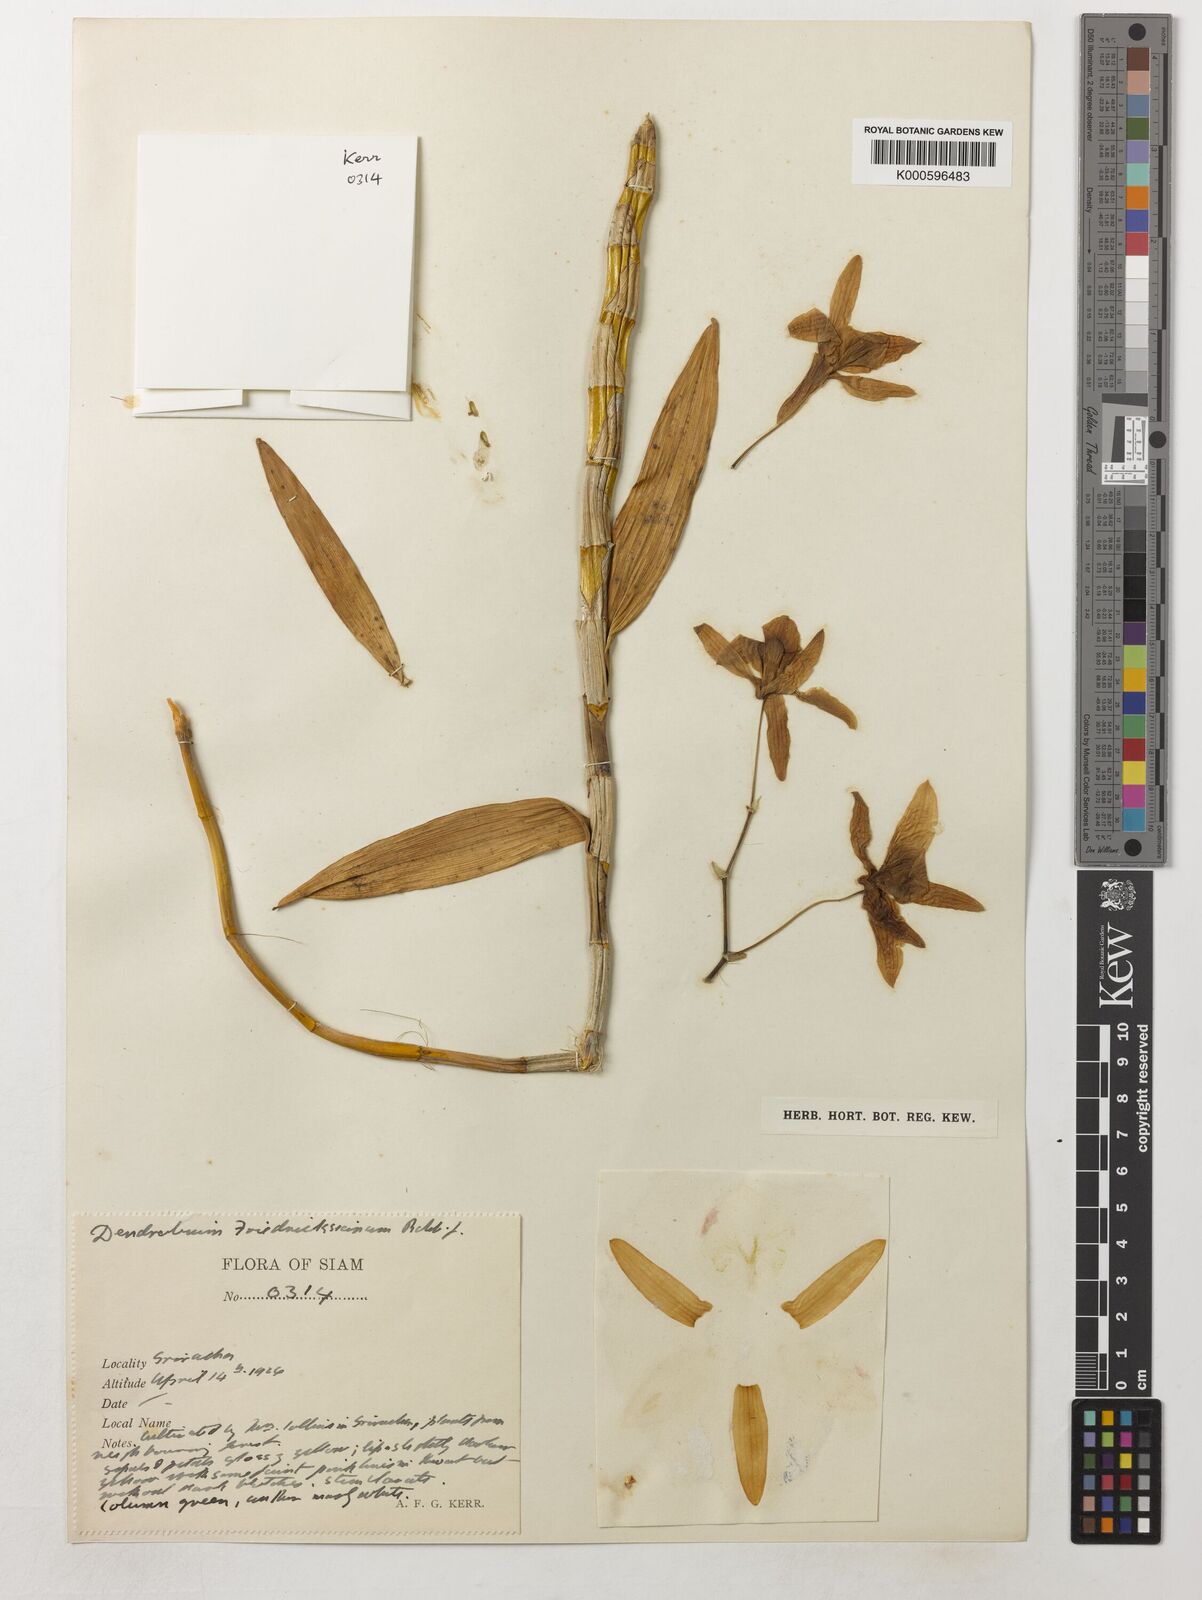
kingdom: Plantae
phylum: Tracheophyta
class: Liliopsida
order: Asparagales
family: Orchidaceae
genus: Dendrobium
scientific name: Dendrobium friedericksianum
